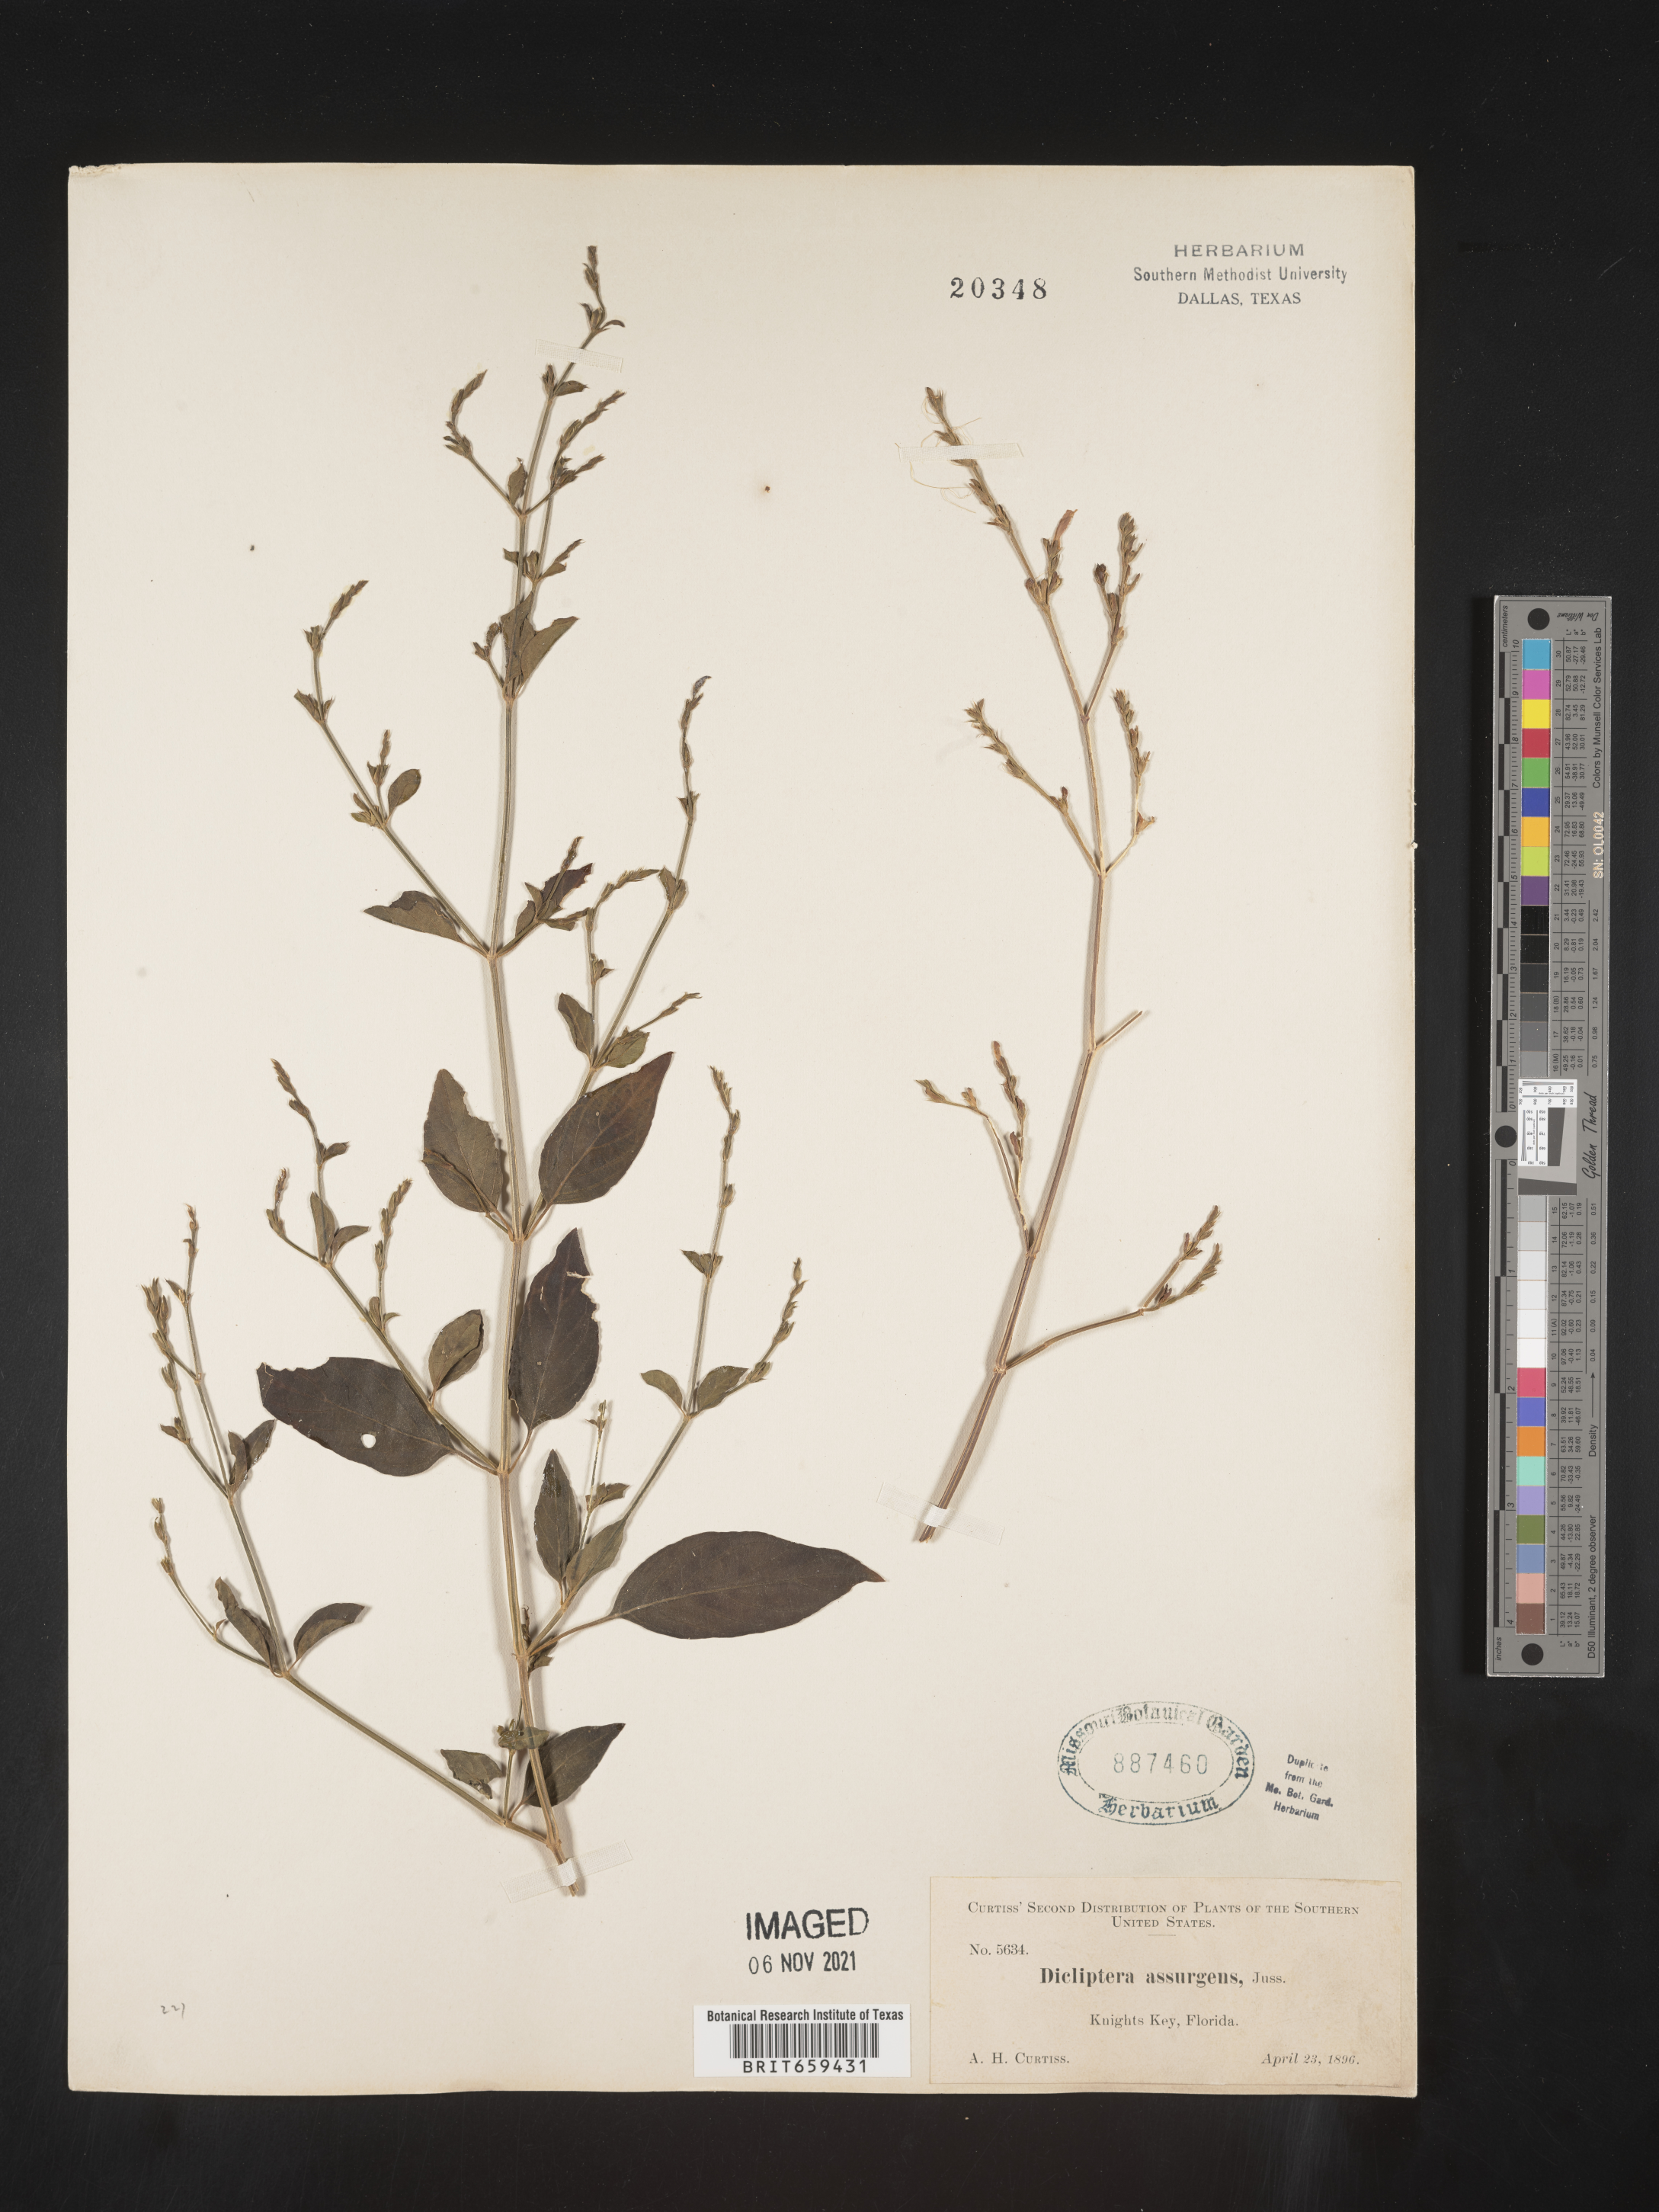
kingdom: Plantae
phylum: Tracheophyta
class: Magnoliopsida
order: Lamiales
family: Acanthaceae
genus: Dicliptera
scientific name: Dicliptera sexangularis
